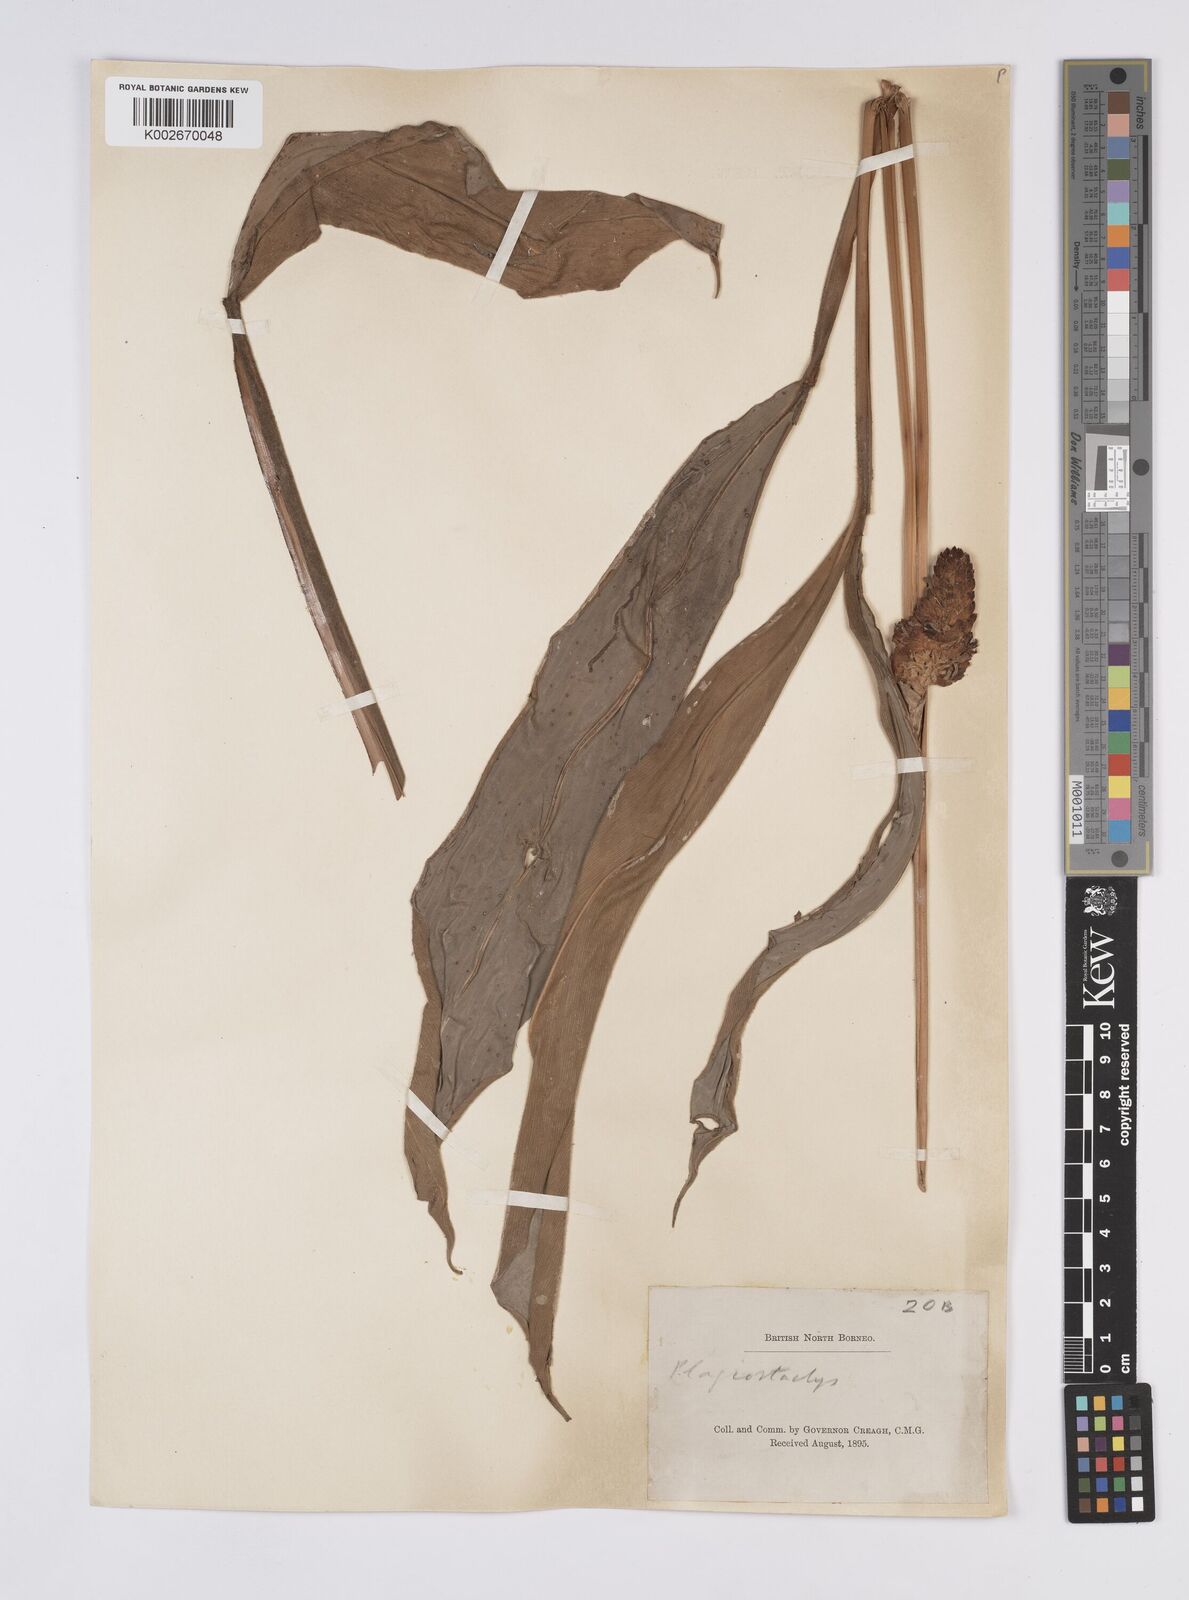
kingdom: Plantae
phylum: Tracheophyta
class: Liliopsida
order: Zingiberales
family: Zingiberaceae
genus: Plagiostachys
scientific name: Plagiostachys
